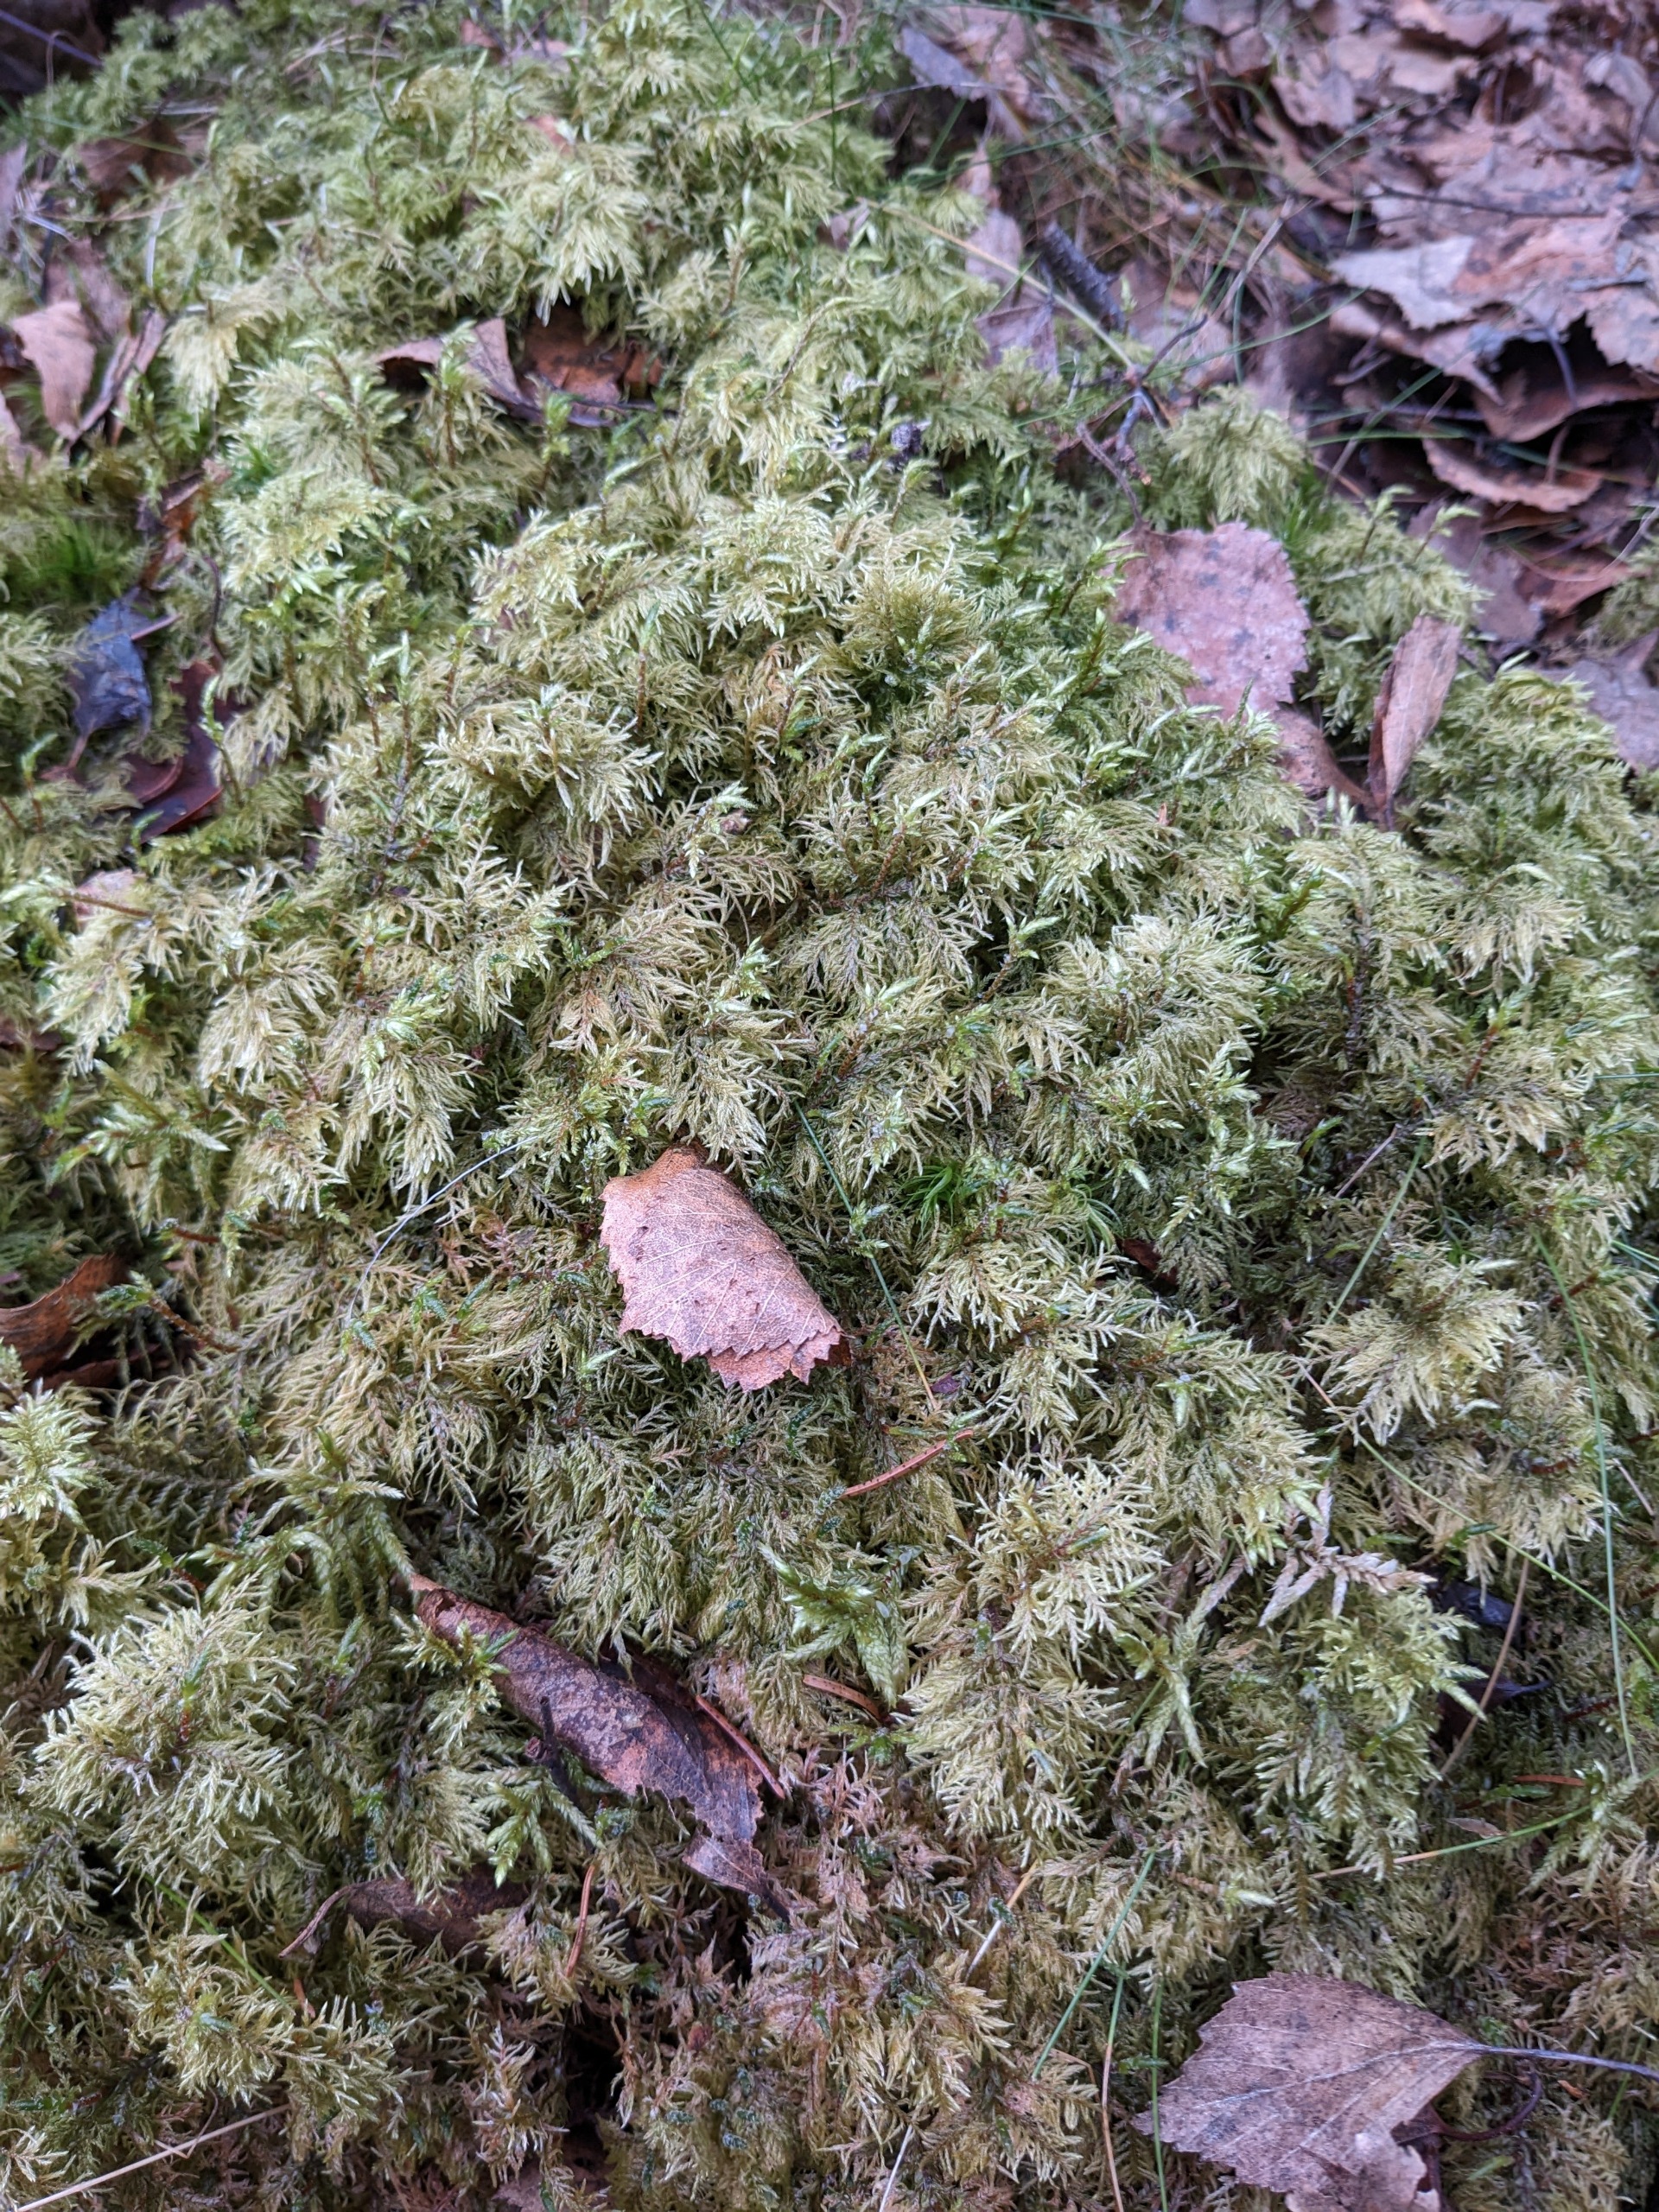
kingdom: Plantae
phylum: Bryophyta
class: Bryopsida
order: Hypnales
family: Hylocomiaceae
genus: Hylocomium
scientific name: Hylocomium splendens
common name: Almindelig etagemos
